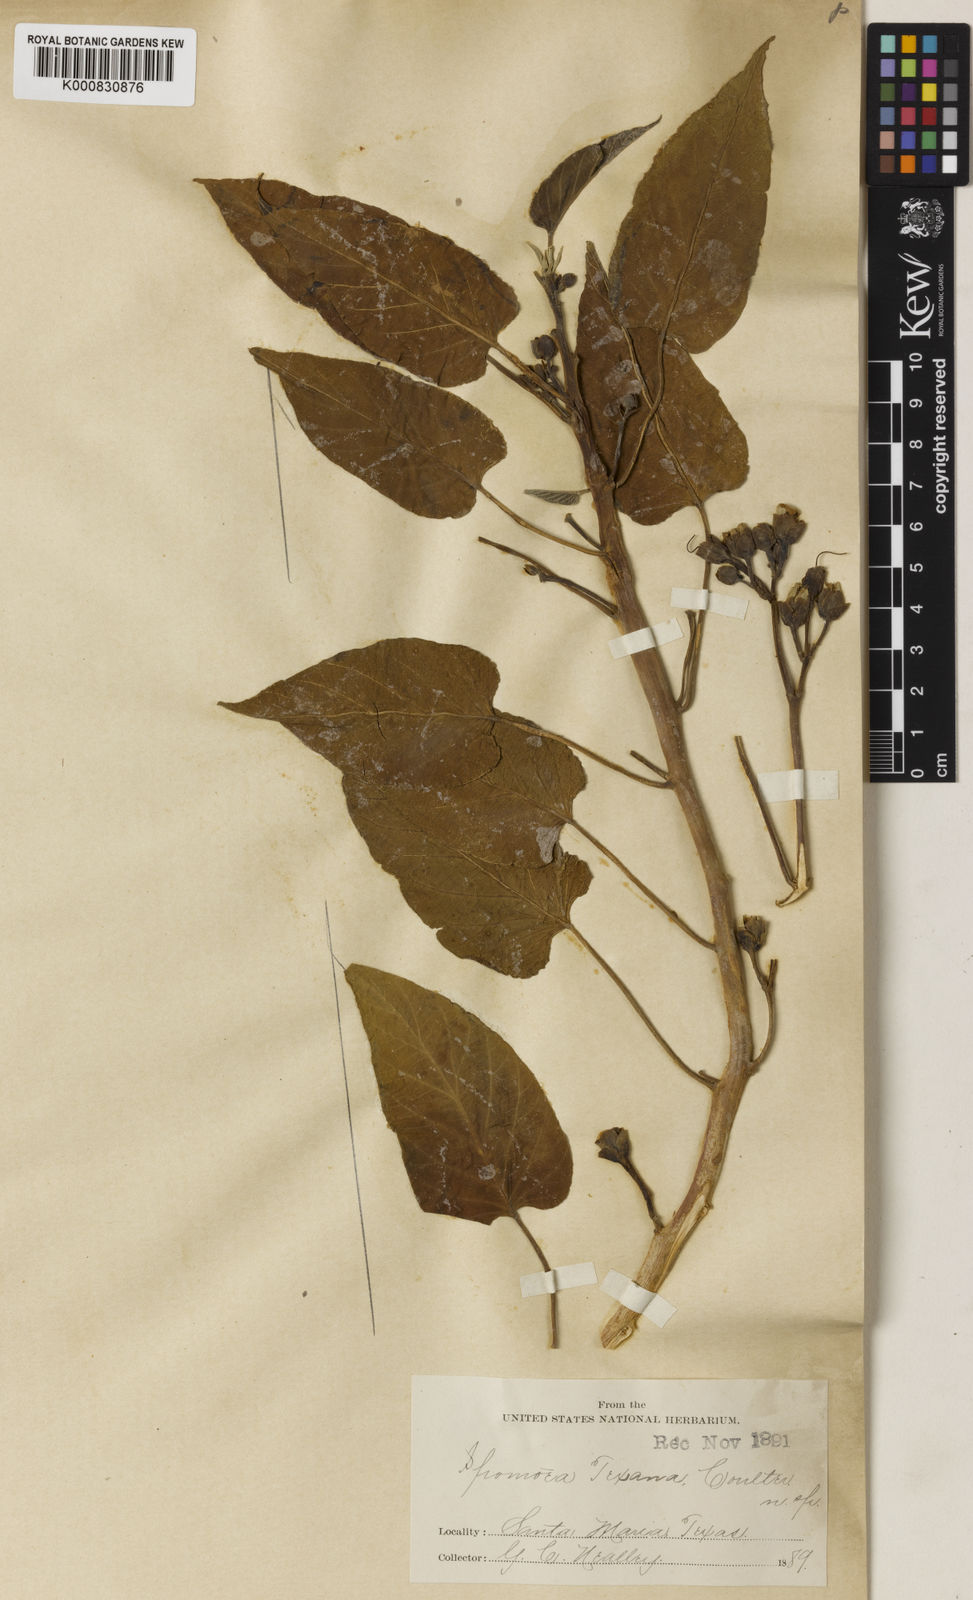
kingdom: Plantae
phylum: Tracheophyta
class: Magnoliopsida
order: Solanales
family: Convolvulaceae
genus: Ipomoea
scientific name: Ipomoea carnea
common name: Morning-glory
